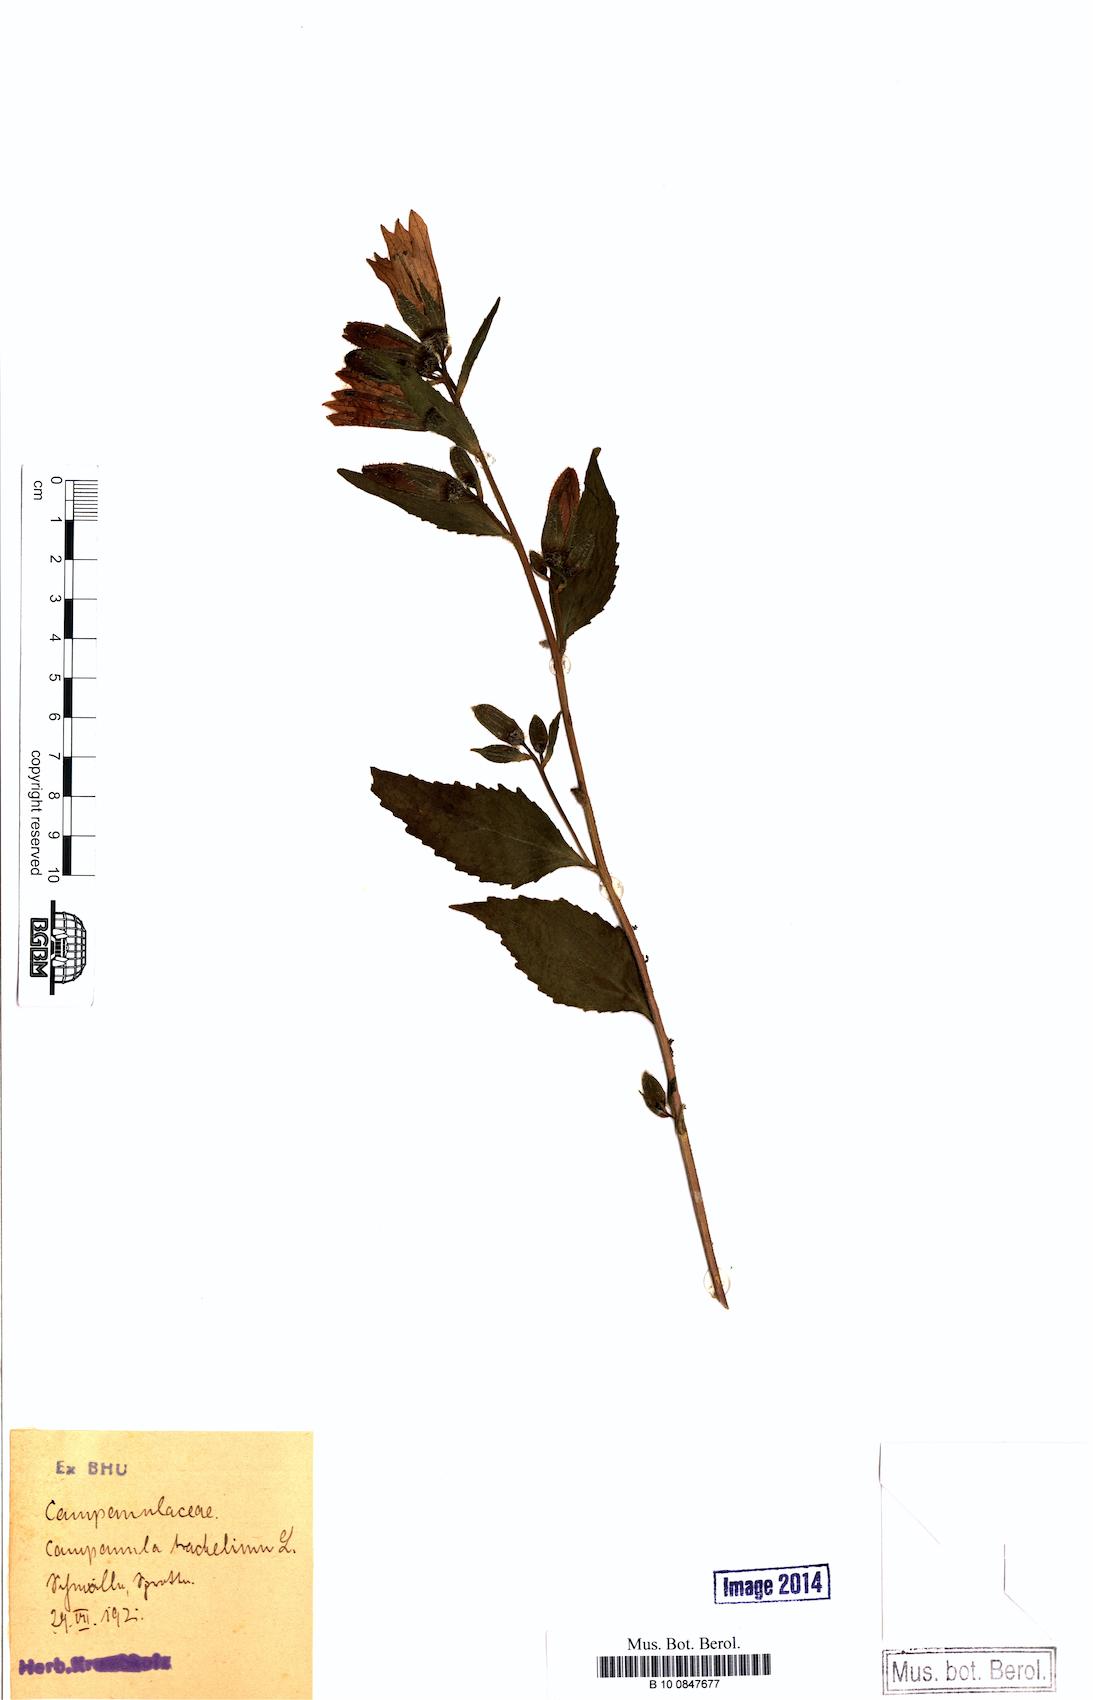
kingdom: Plantae
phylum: Tracheophyta
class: Magnoliopsida
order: Asterales
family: Campanulaceae
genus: Campanula
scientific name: Campanula trachelium
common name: Nettle-leaved bellflower
